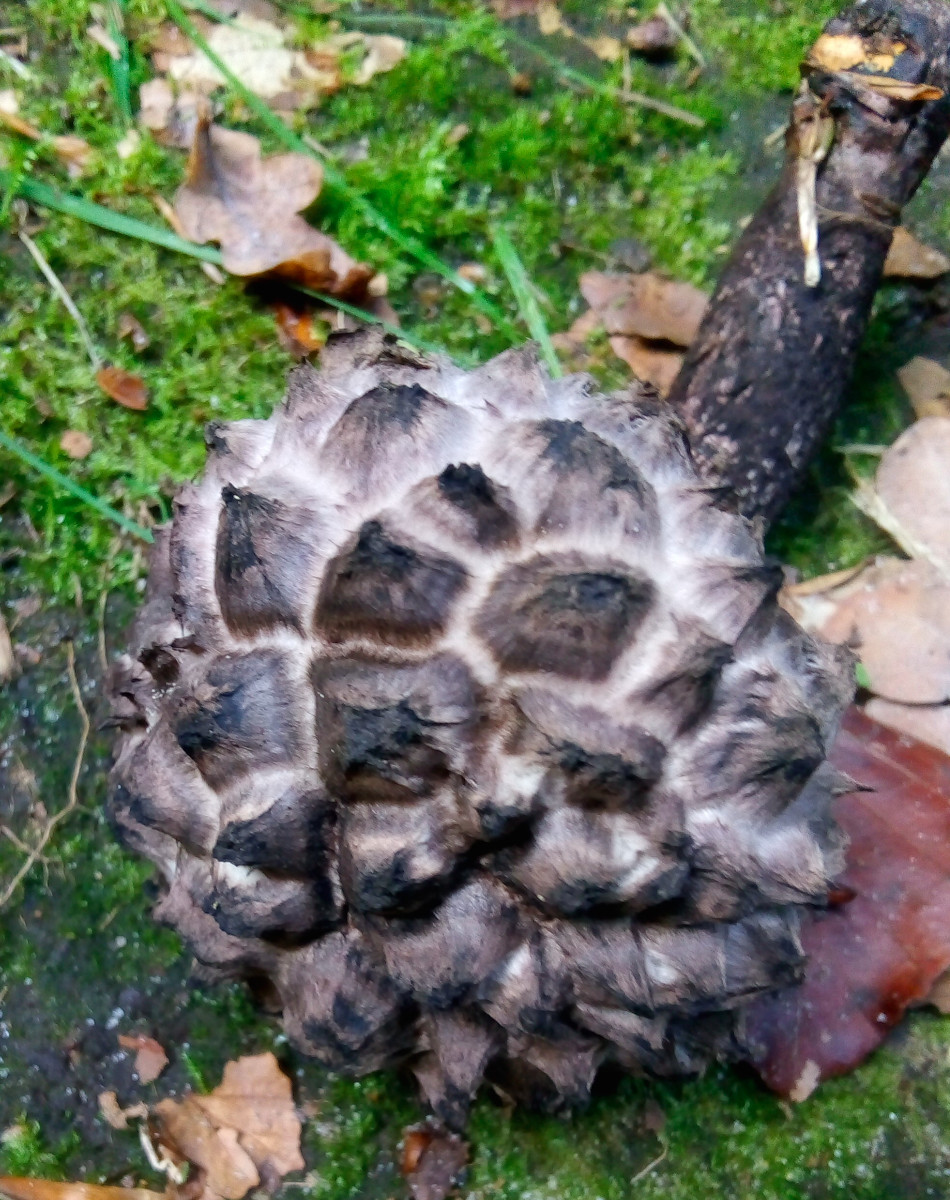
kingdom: Fungi
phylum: Basidiomycota
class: Agaricomycetes
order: Boletales
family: Boletaceae
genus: Strobilomyces
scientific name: Strobilomyces strobilaceus
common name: koglerørhat
